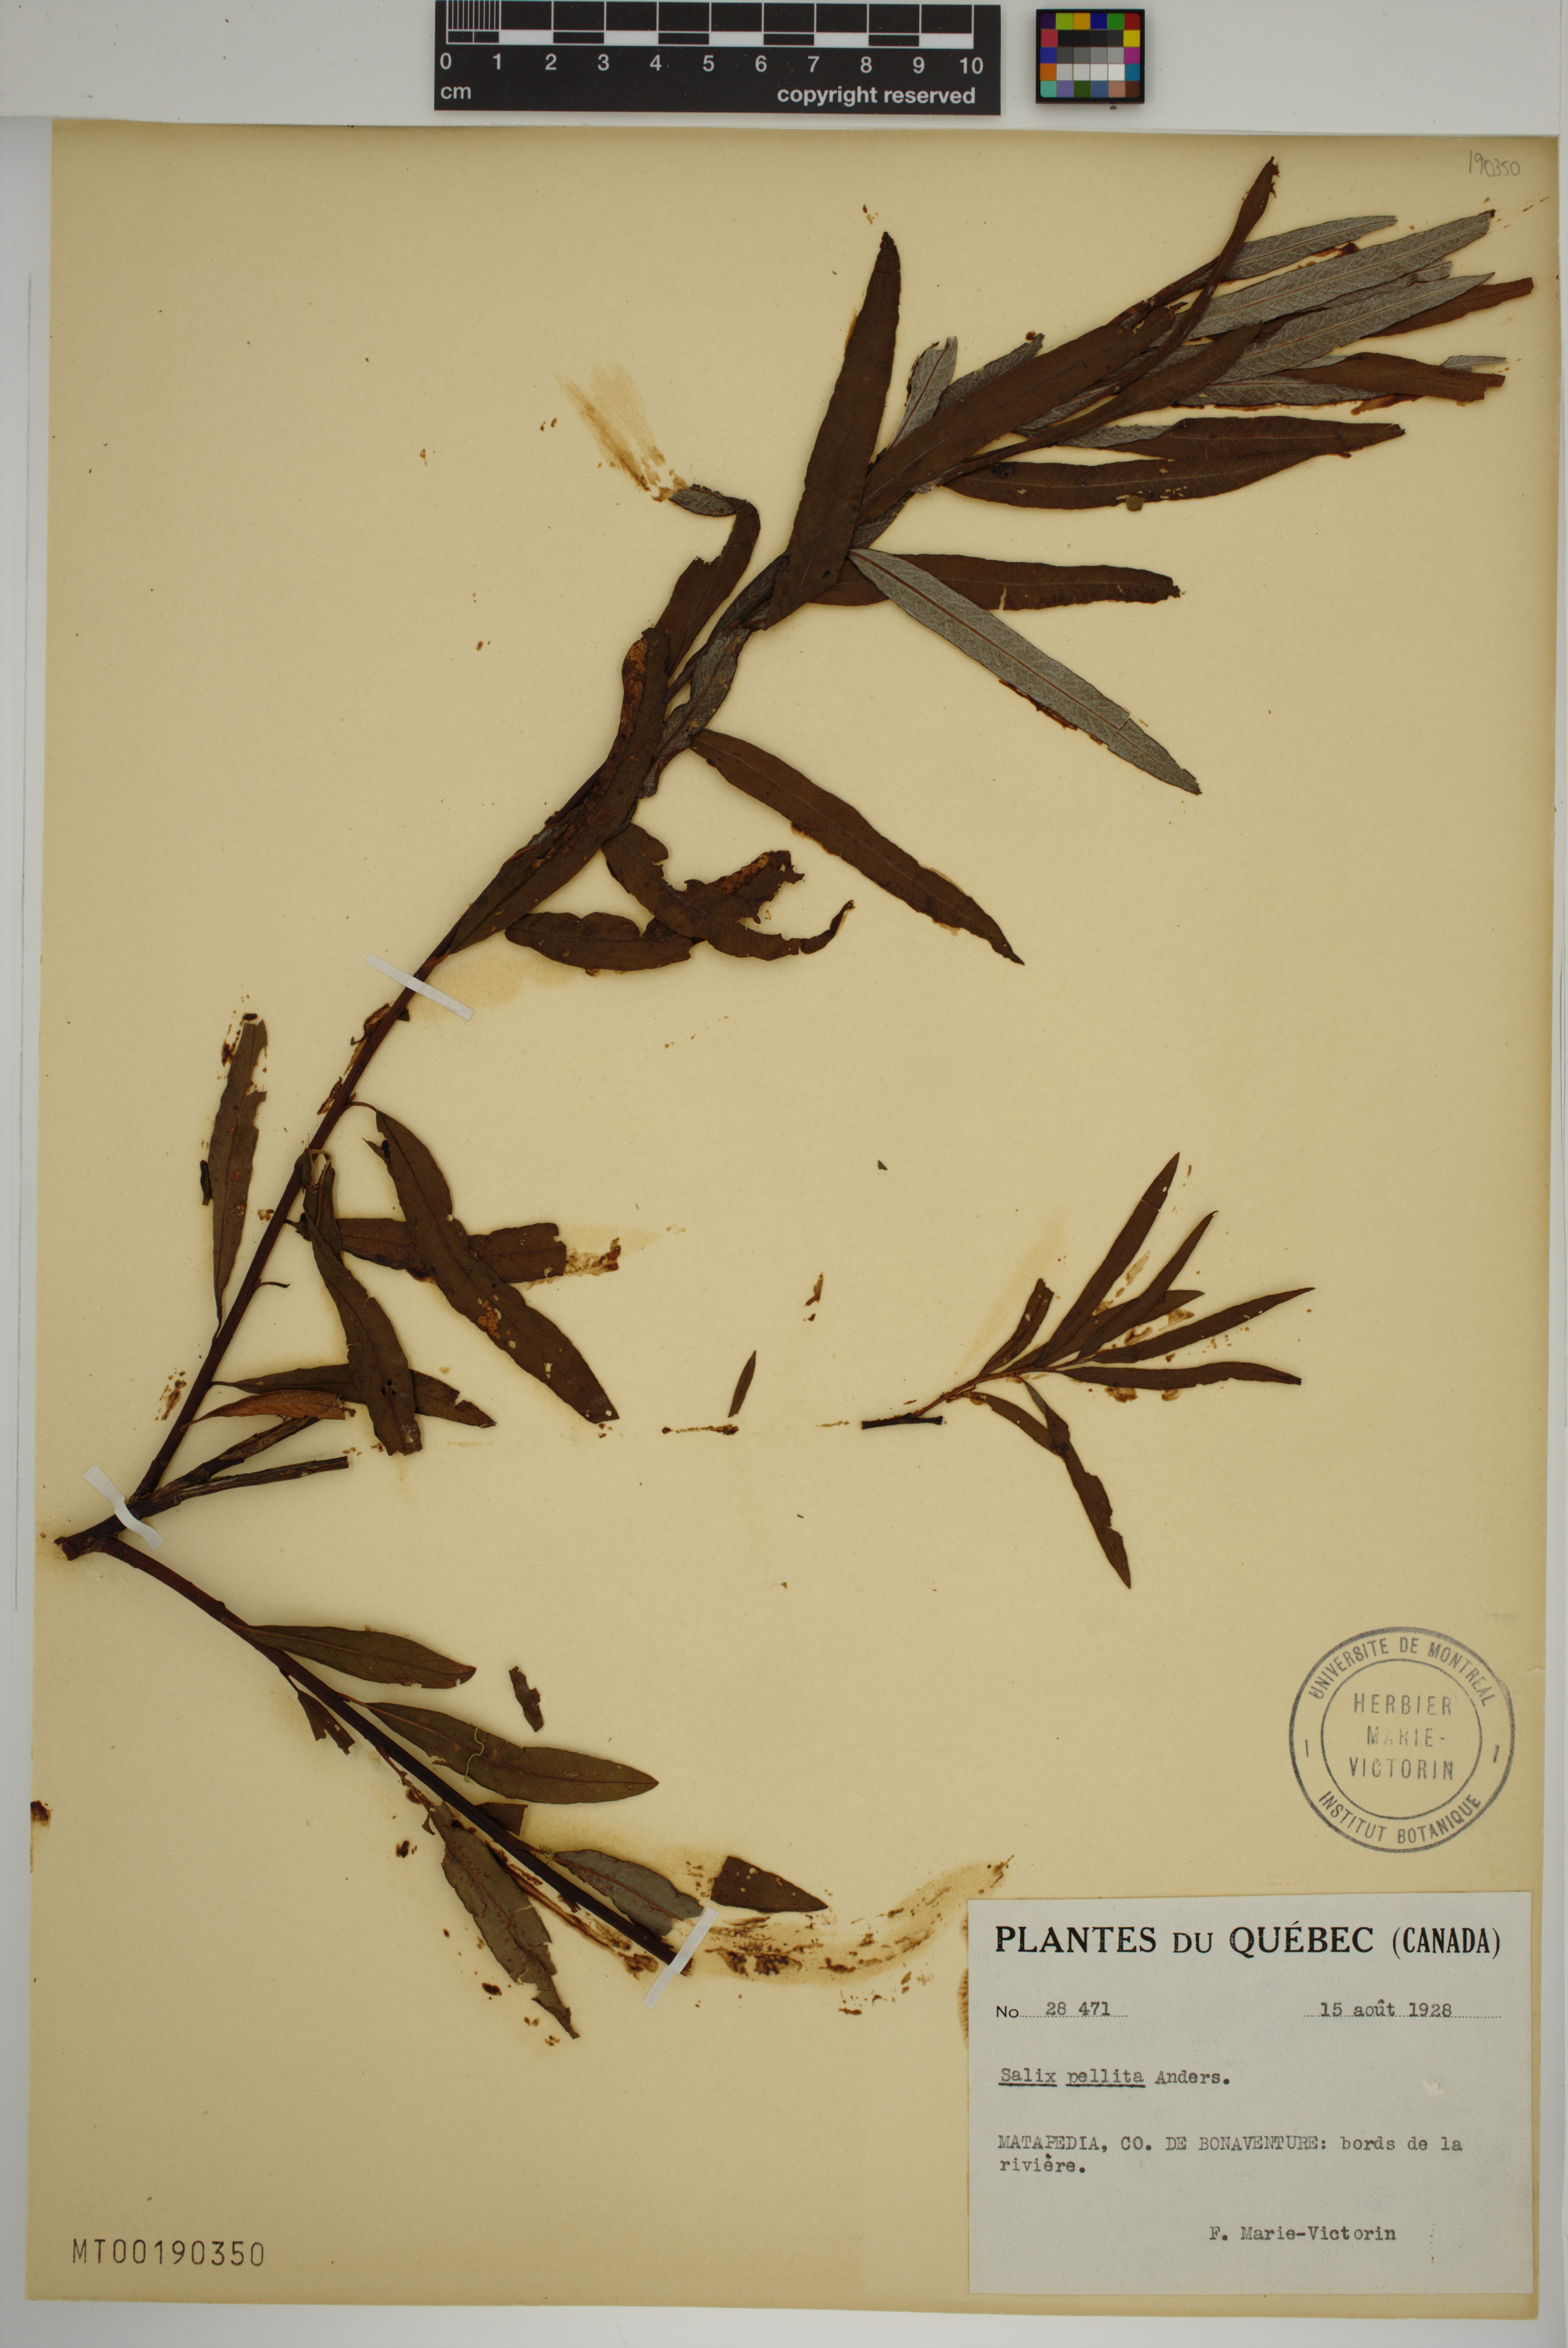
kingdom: Plantae
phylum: Tracheophyta
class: Magnoliopsida
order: Malpighiales
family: Salicaceae
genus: Salix
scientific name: Salix pellita
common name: Satiny willow
